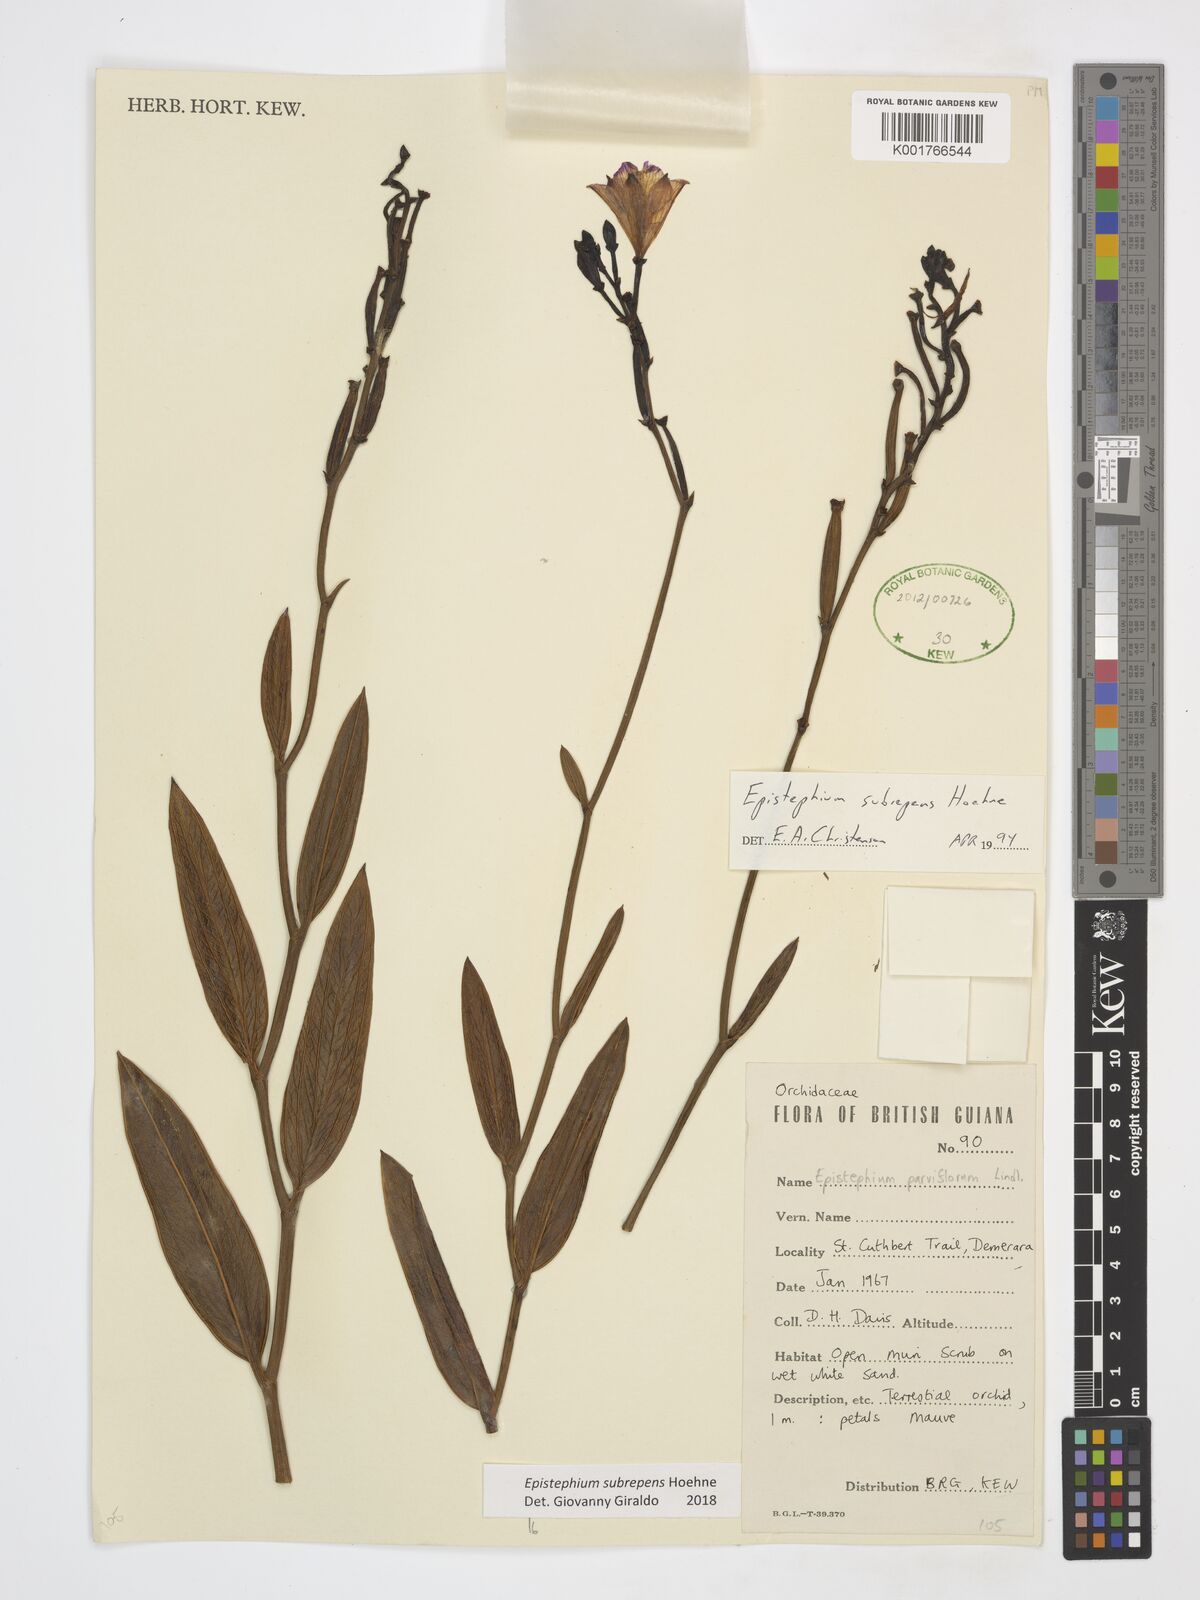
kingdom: Plantae
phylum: Tracheophyta
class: Liliopsida
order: Asparagales
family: Orchidaceae
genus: Epistephium
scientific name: Epistephium subrepens
